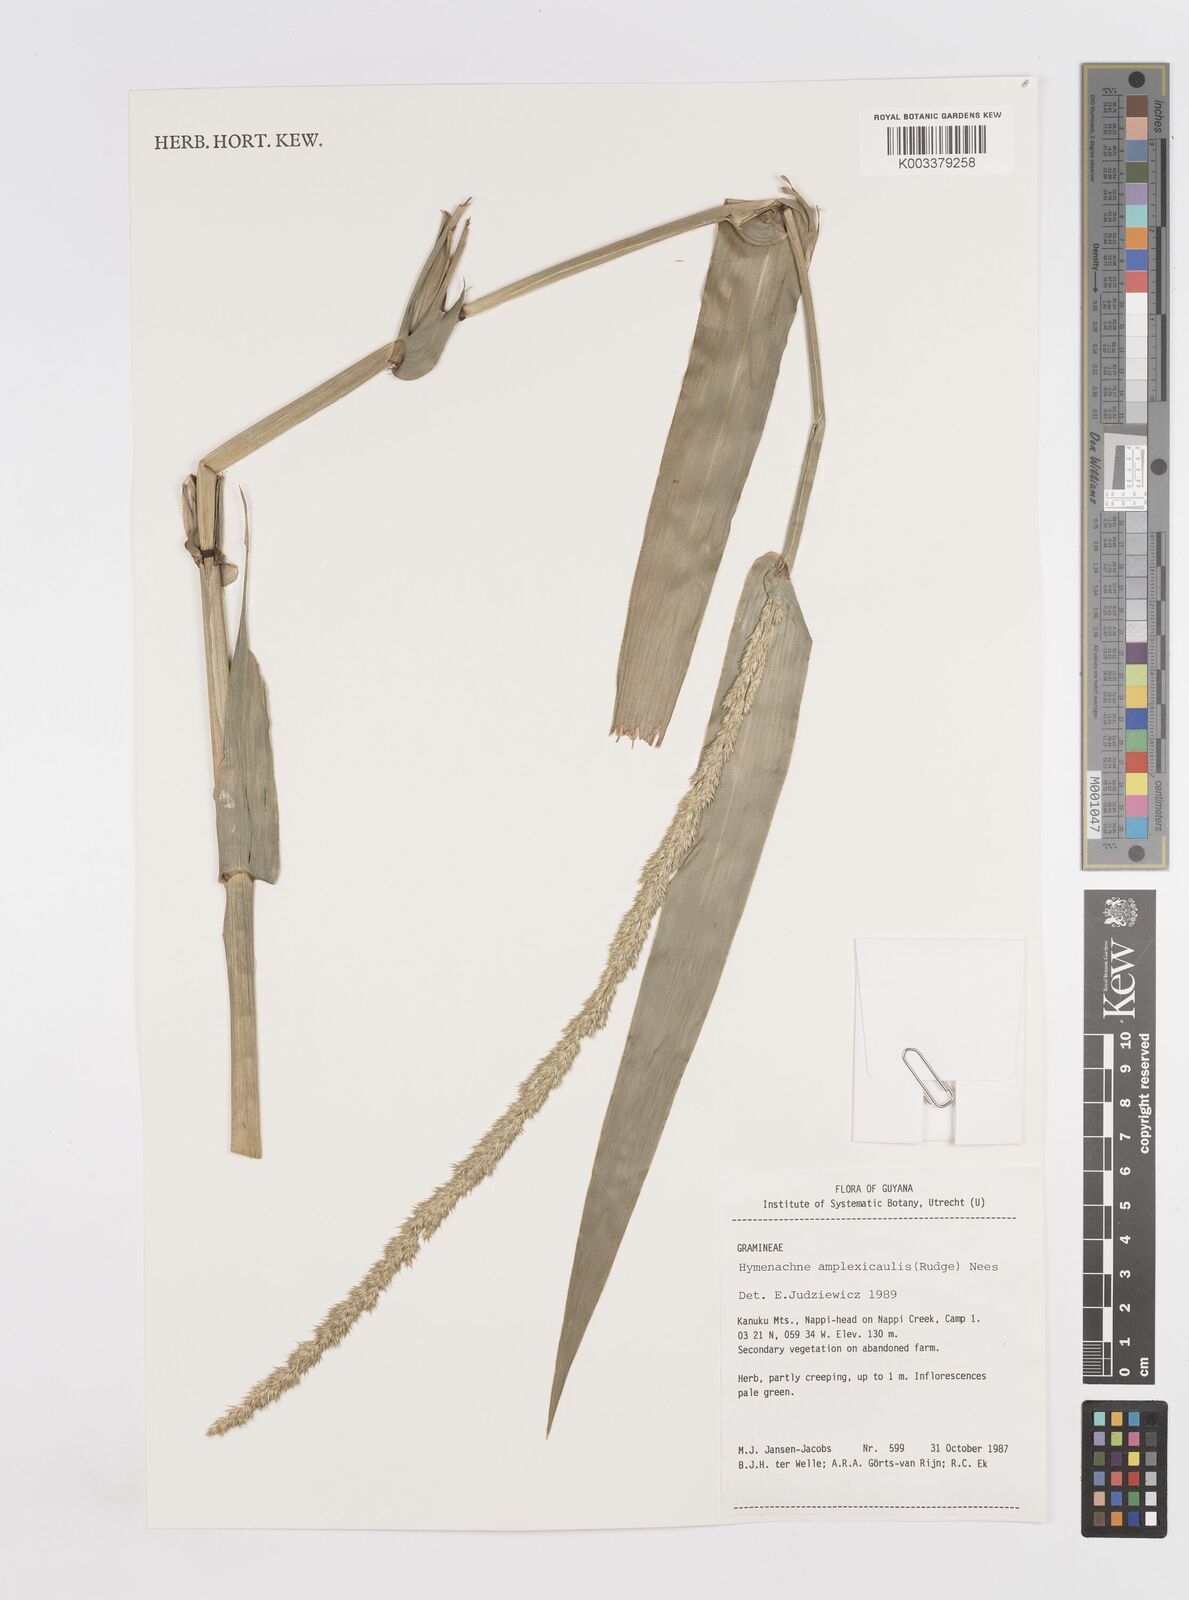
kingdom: Plantae
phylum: Tracheophyta
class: Liliopsida
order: Poales
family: Poaceae
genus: Hymenachne
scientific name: Hymenachne amplexicaulis
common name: Olive hymenachne
